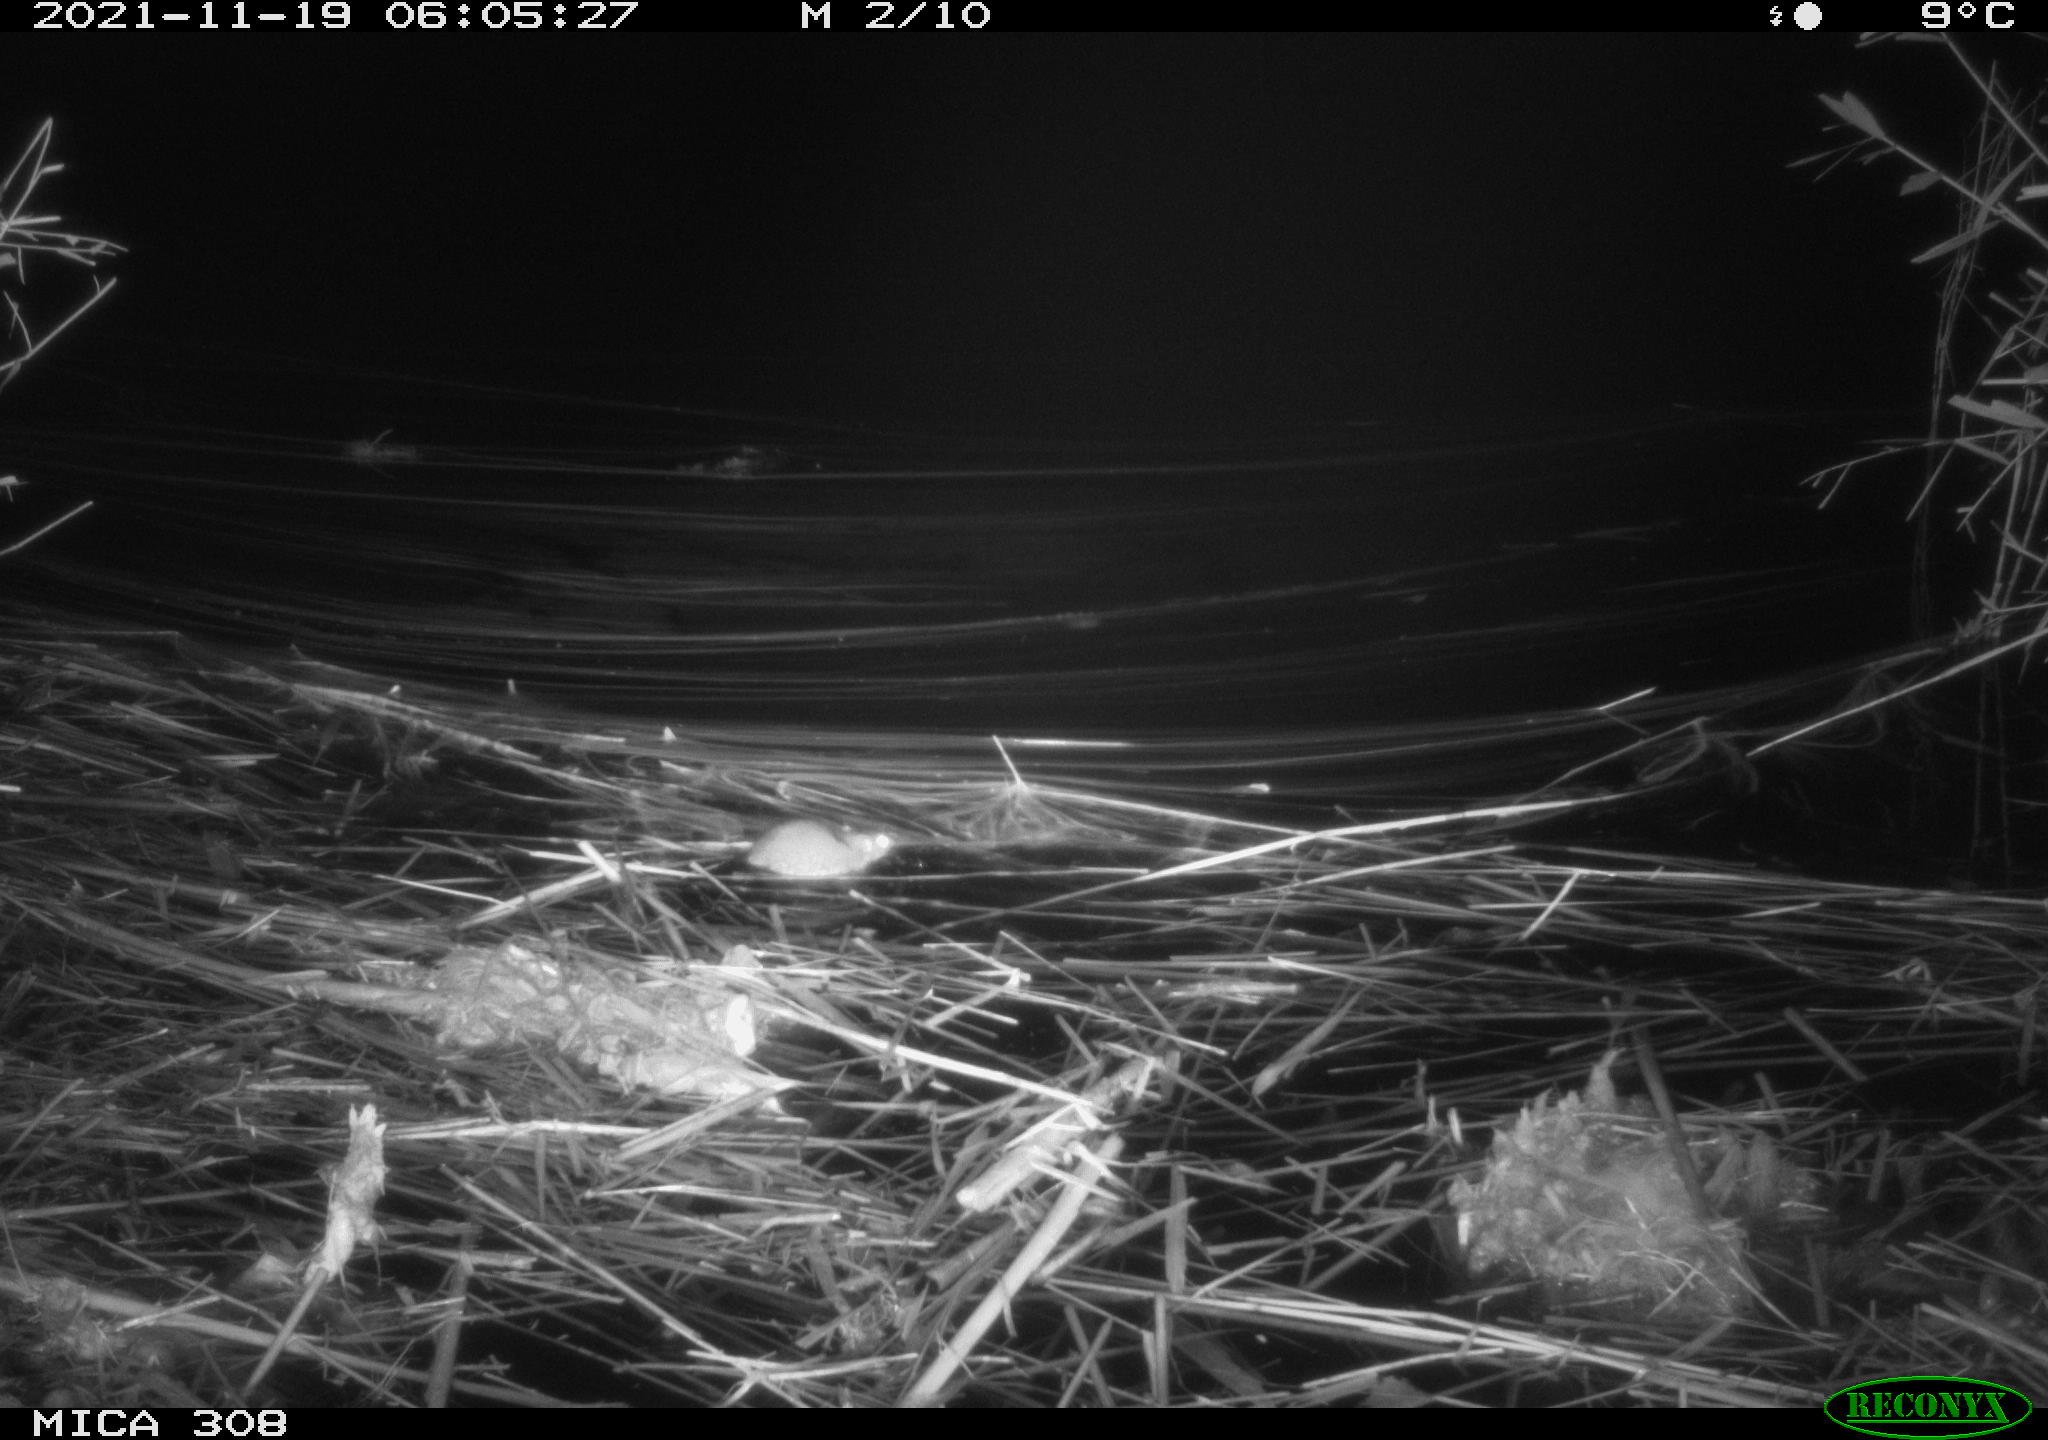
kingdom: Animalia
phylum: Chordata
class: Mammalia
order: Rodentia
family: Muridae
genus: Rattus
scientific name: Rattus norvegicus
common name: Brown rat
